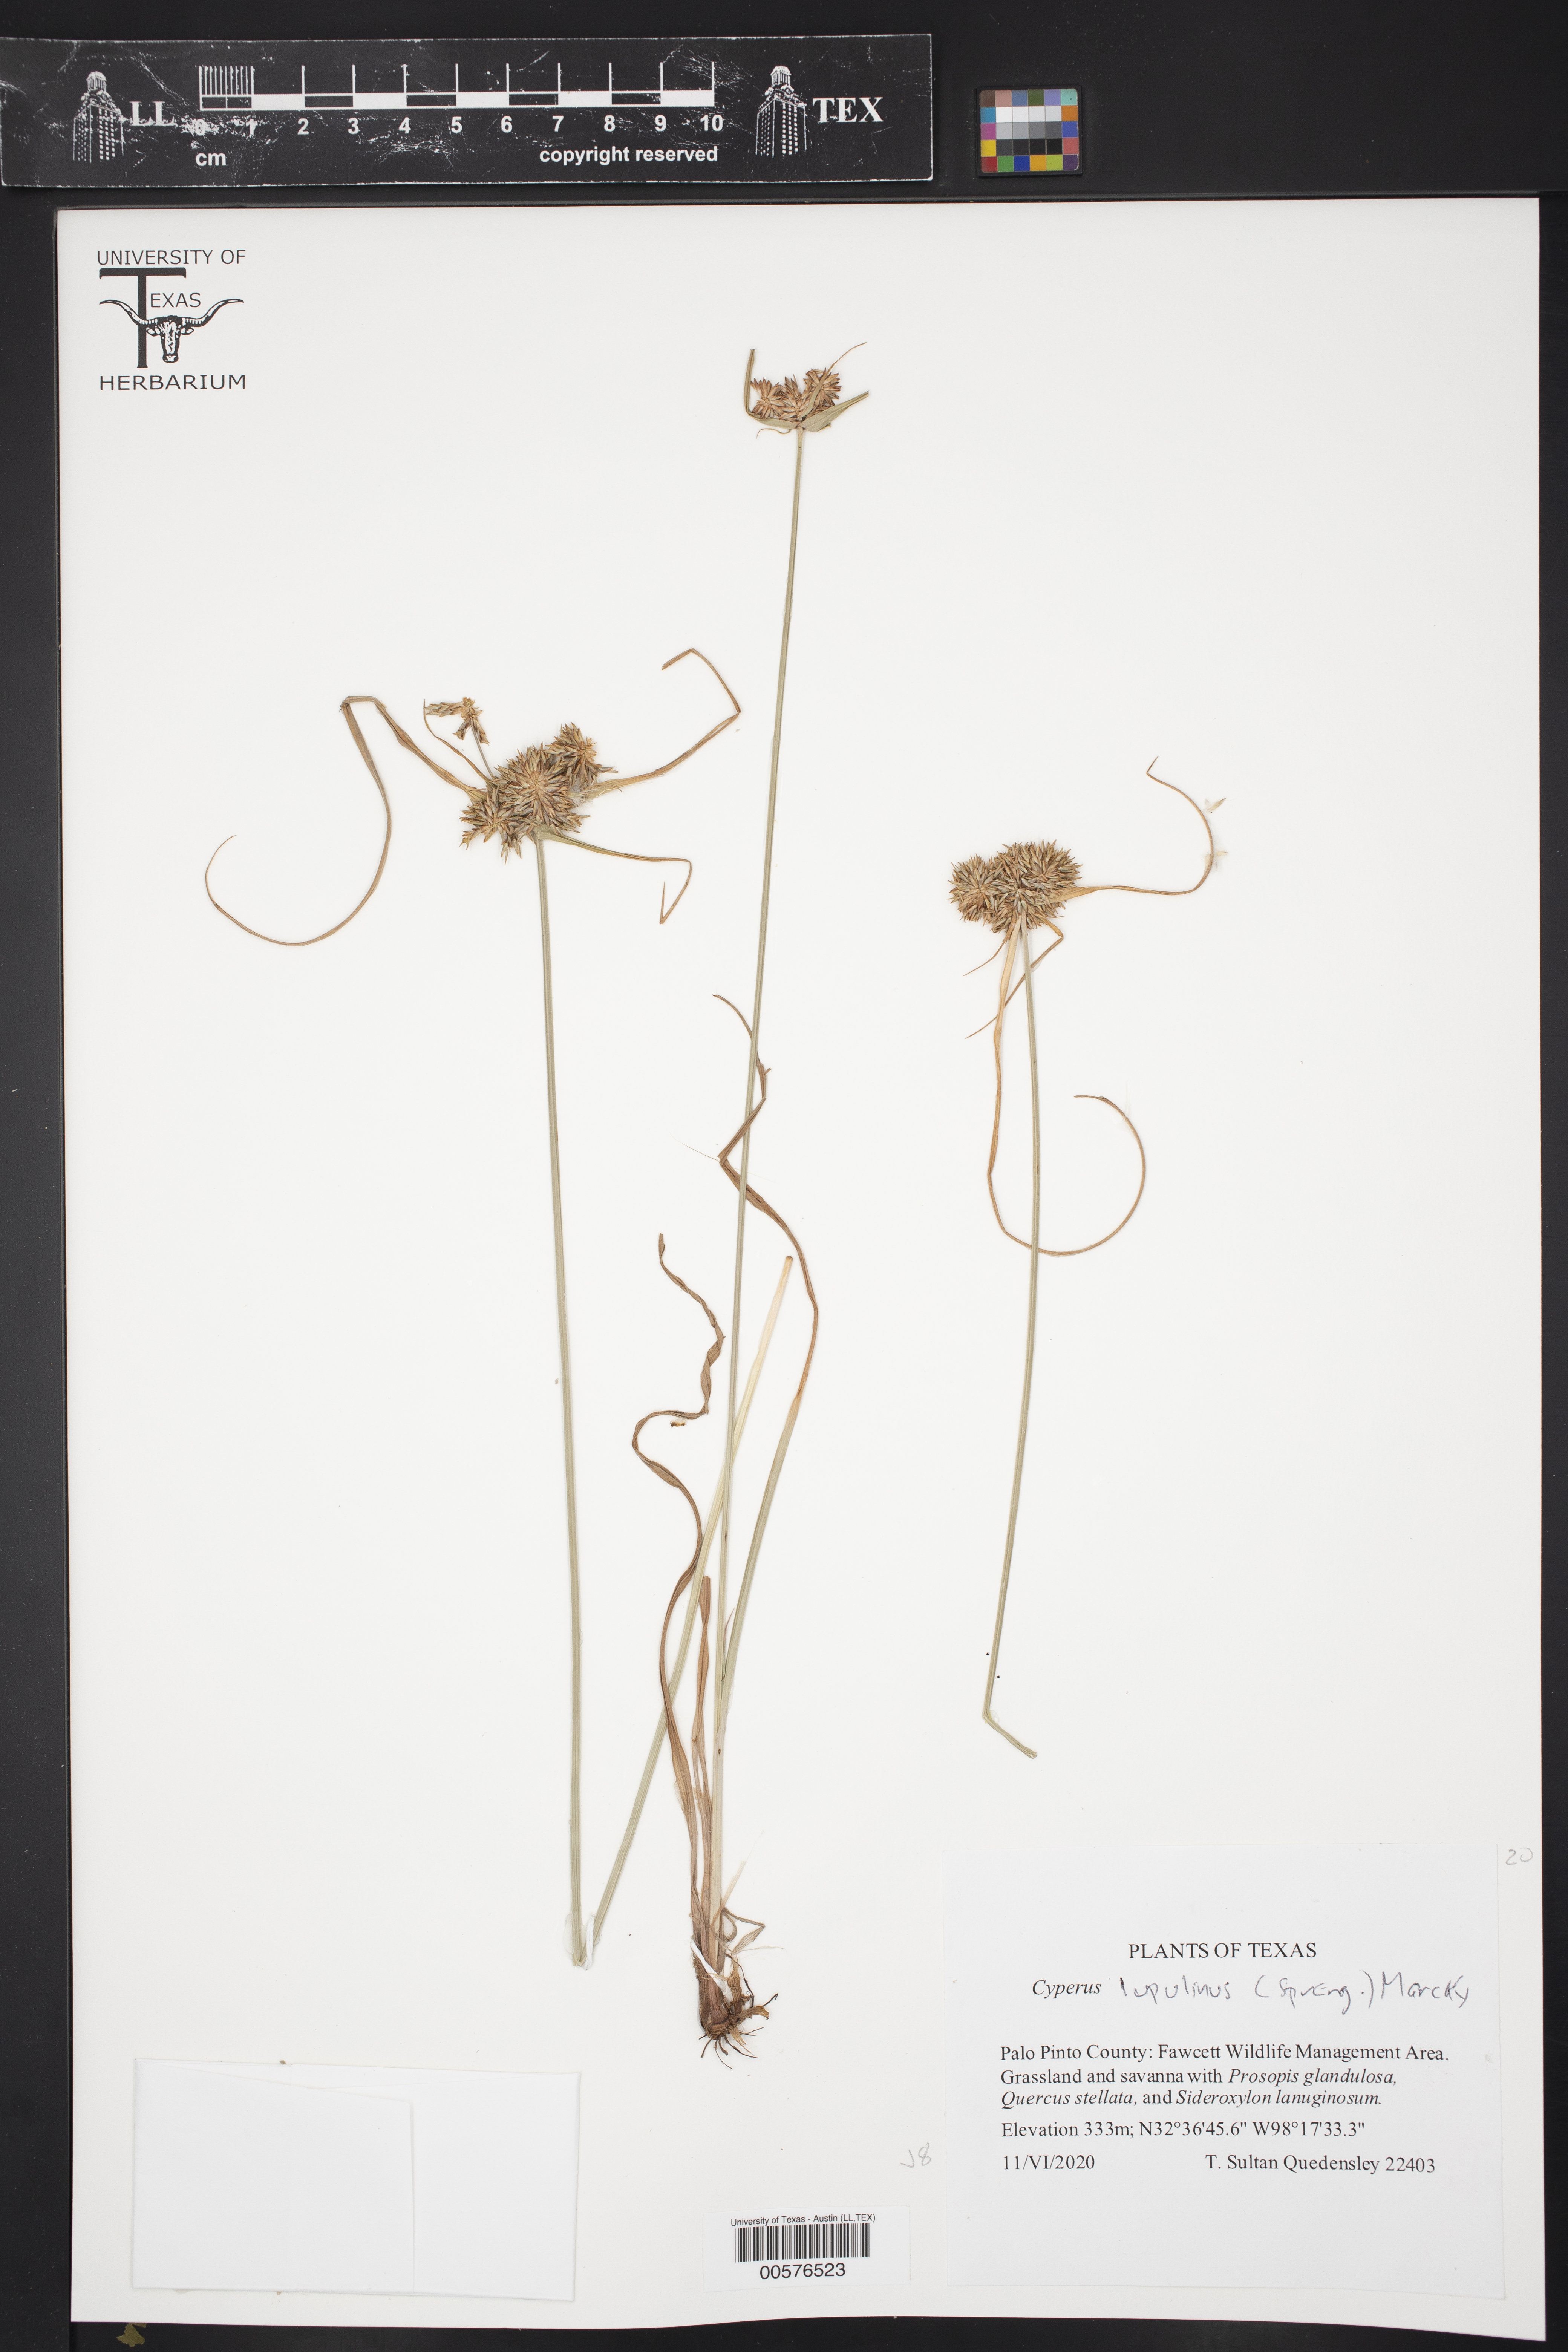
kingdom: Plantae
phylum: Tracheophyta
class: Liliopsida
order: Poales
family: Cyperaceae
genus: Cyperus
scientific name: Cyperus lupulinus
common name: Great plains flatsedge
